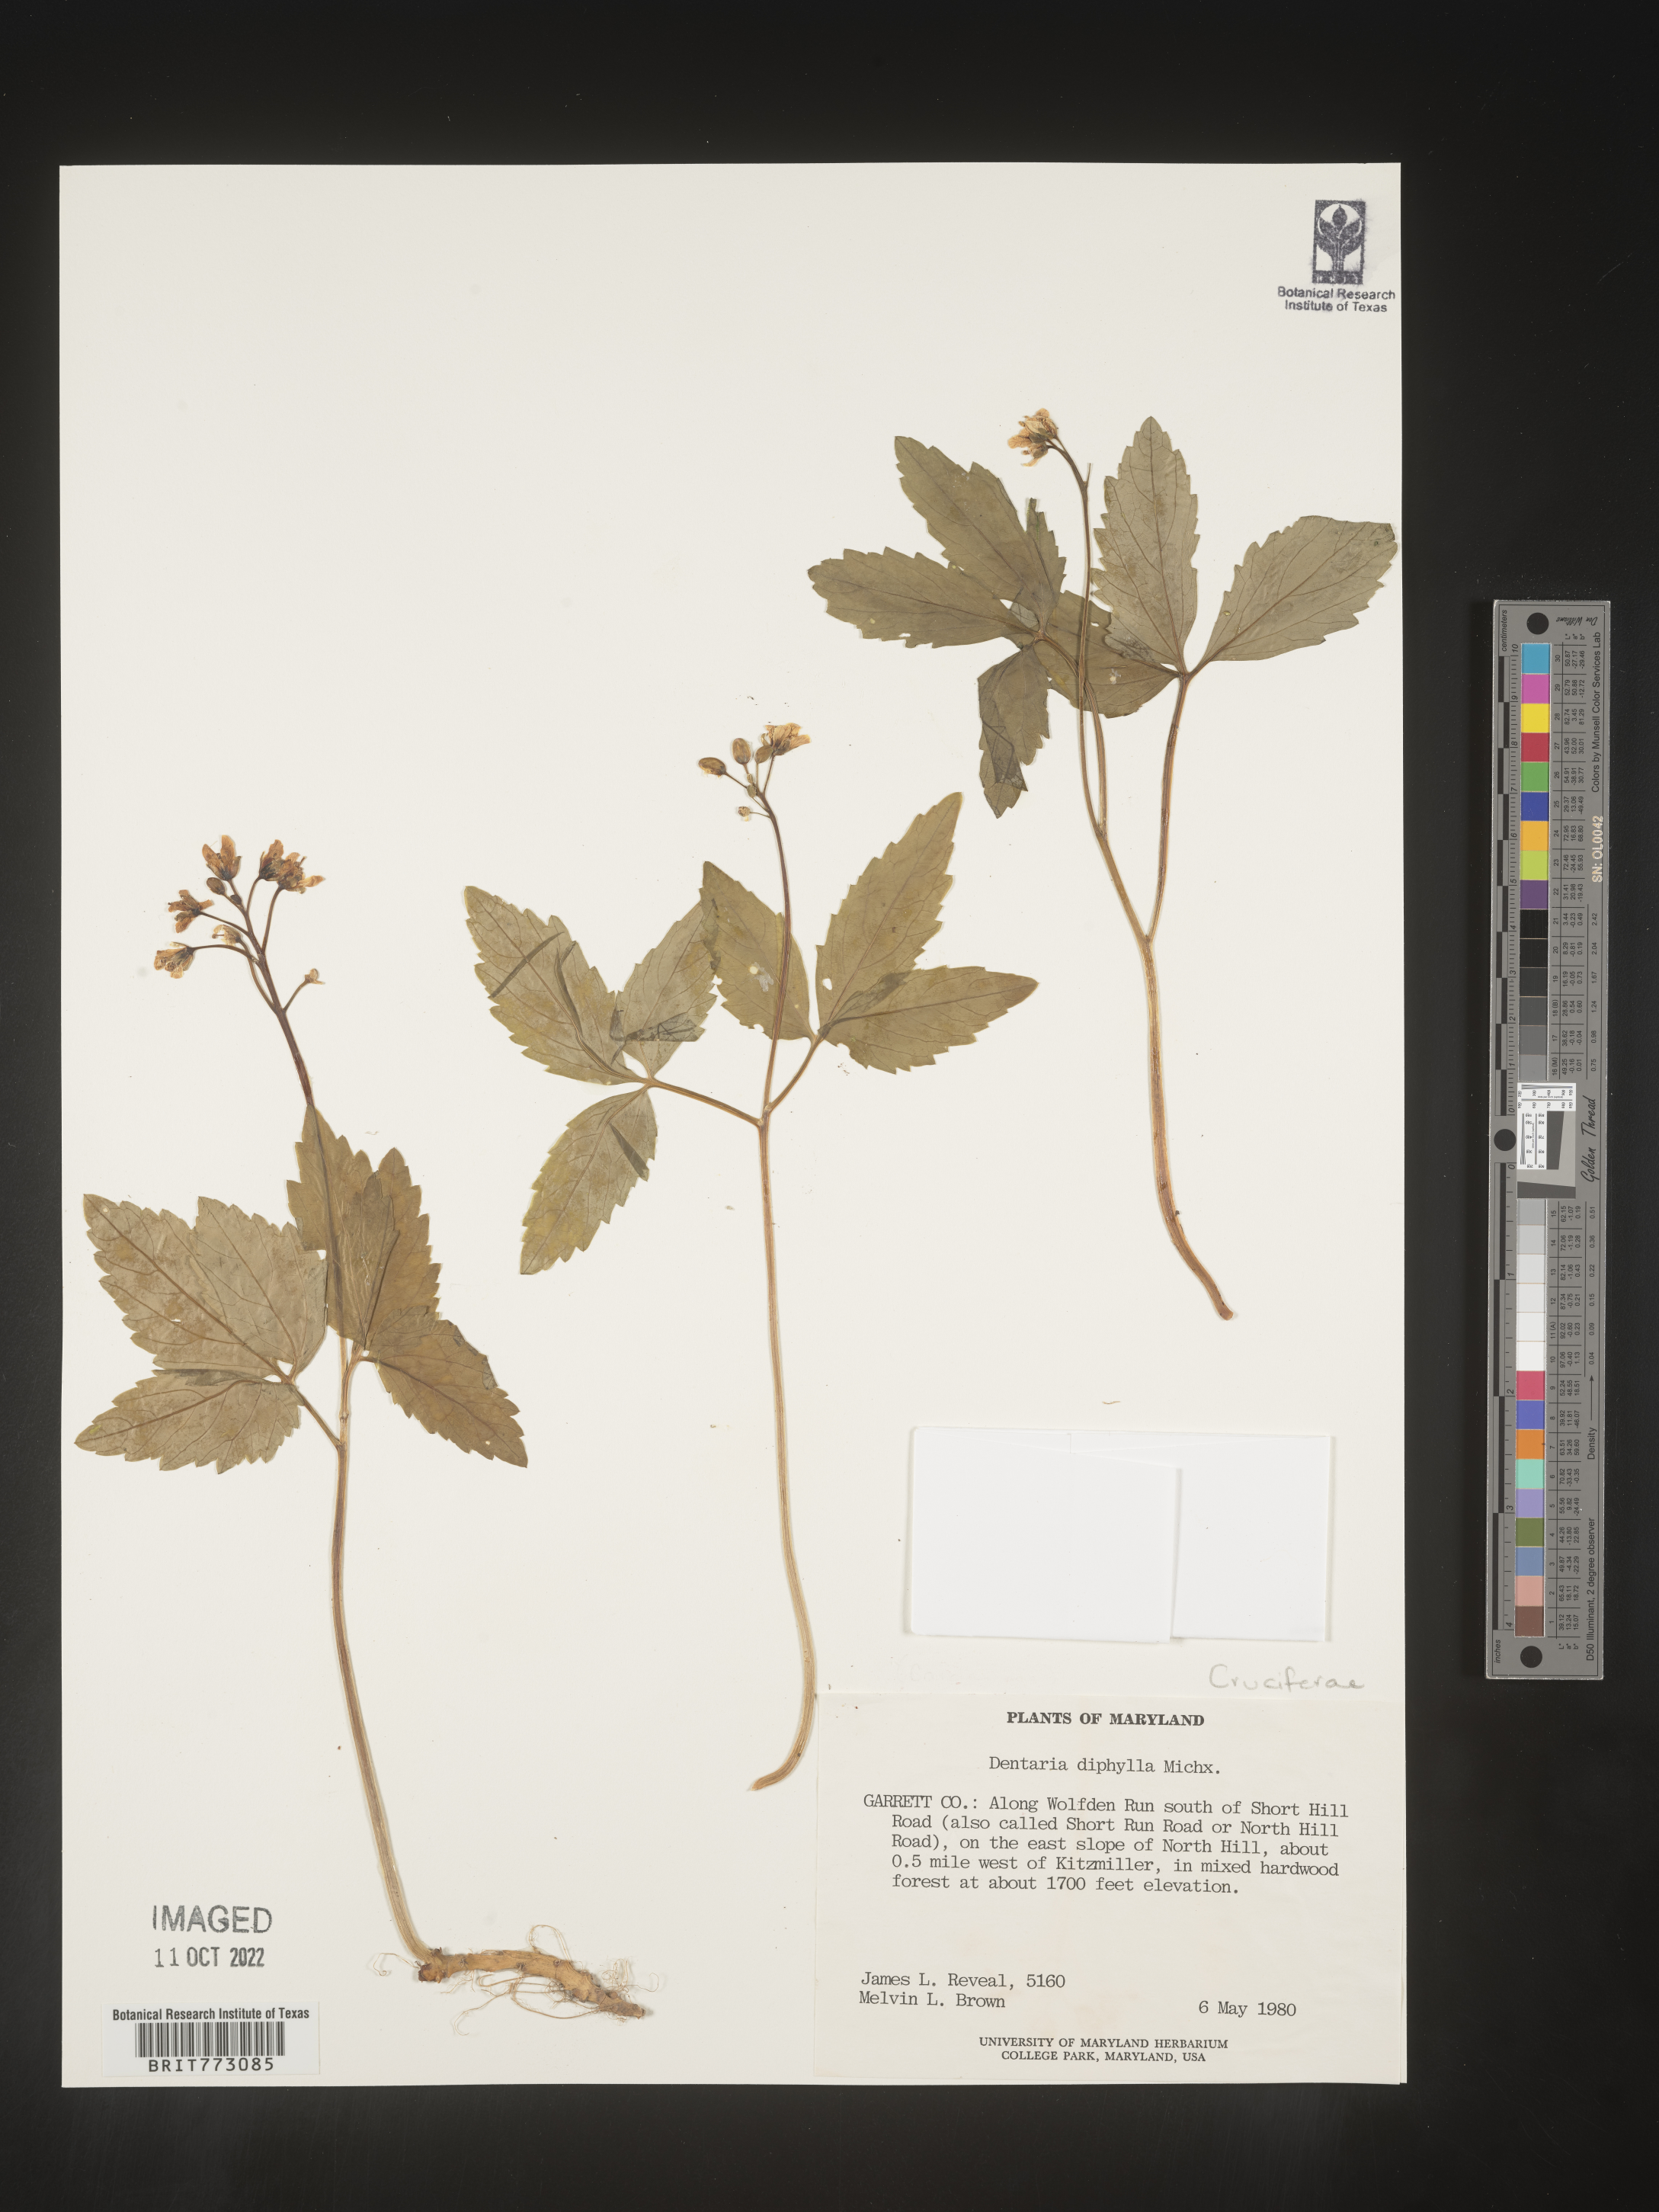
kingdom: Plantae
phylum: Tracheophyta
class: Magnoliopsida
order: Brassicales
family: Brassicaceae
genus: Cardamine
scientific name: Cardamine diphylla
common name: Broad-leaved toothwort
